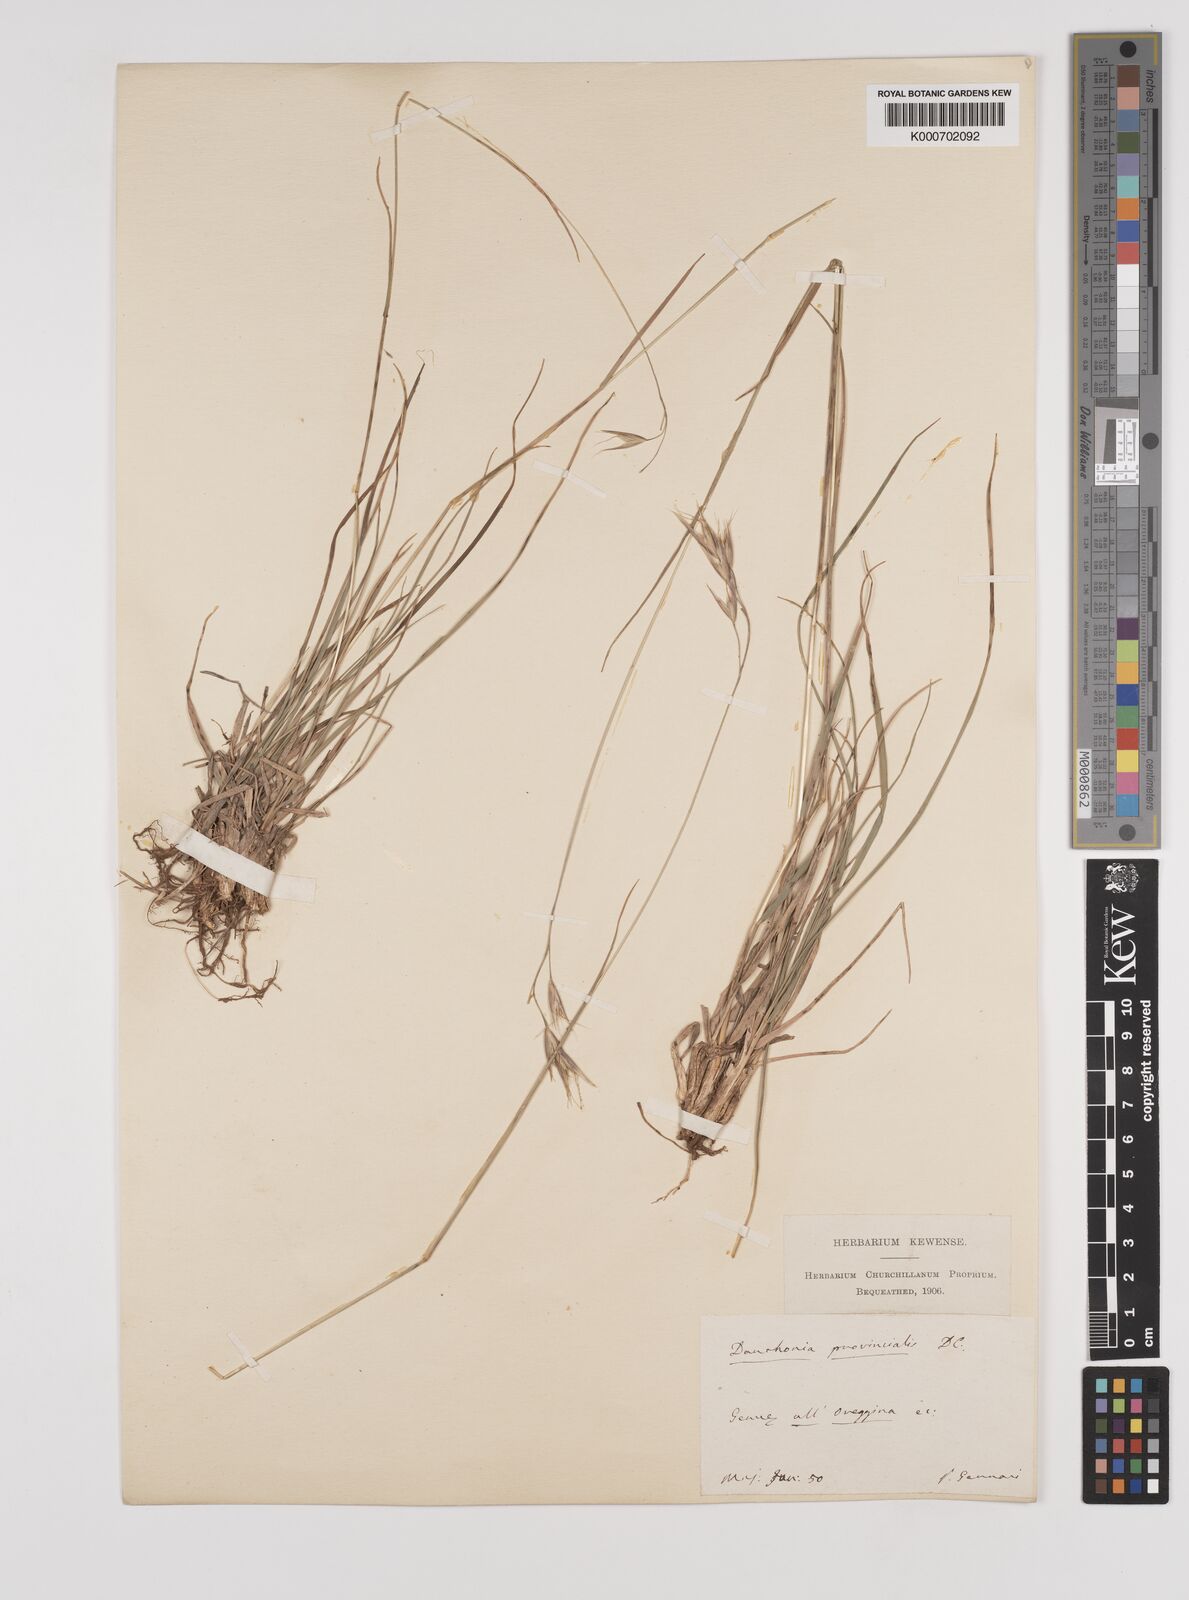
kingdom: Plantae
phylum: Tracheophyta
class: Liliopsida
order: Poales
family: Poaceae
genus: Danthonia
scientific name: Danthonia alpina
